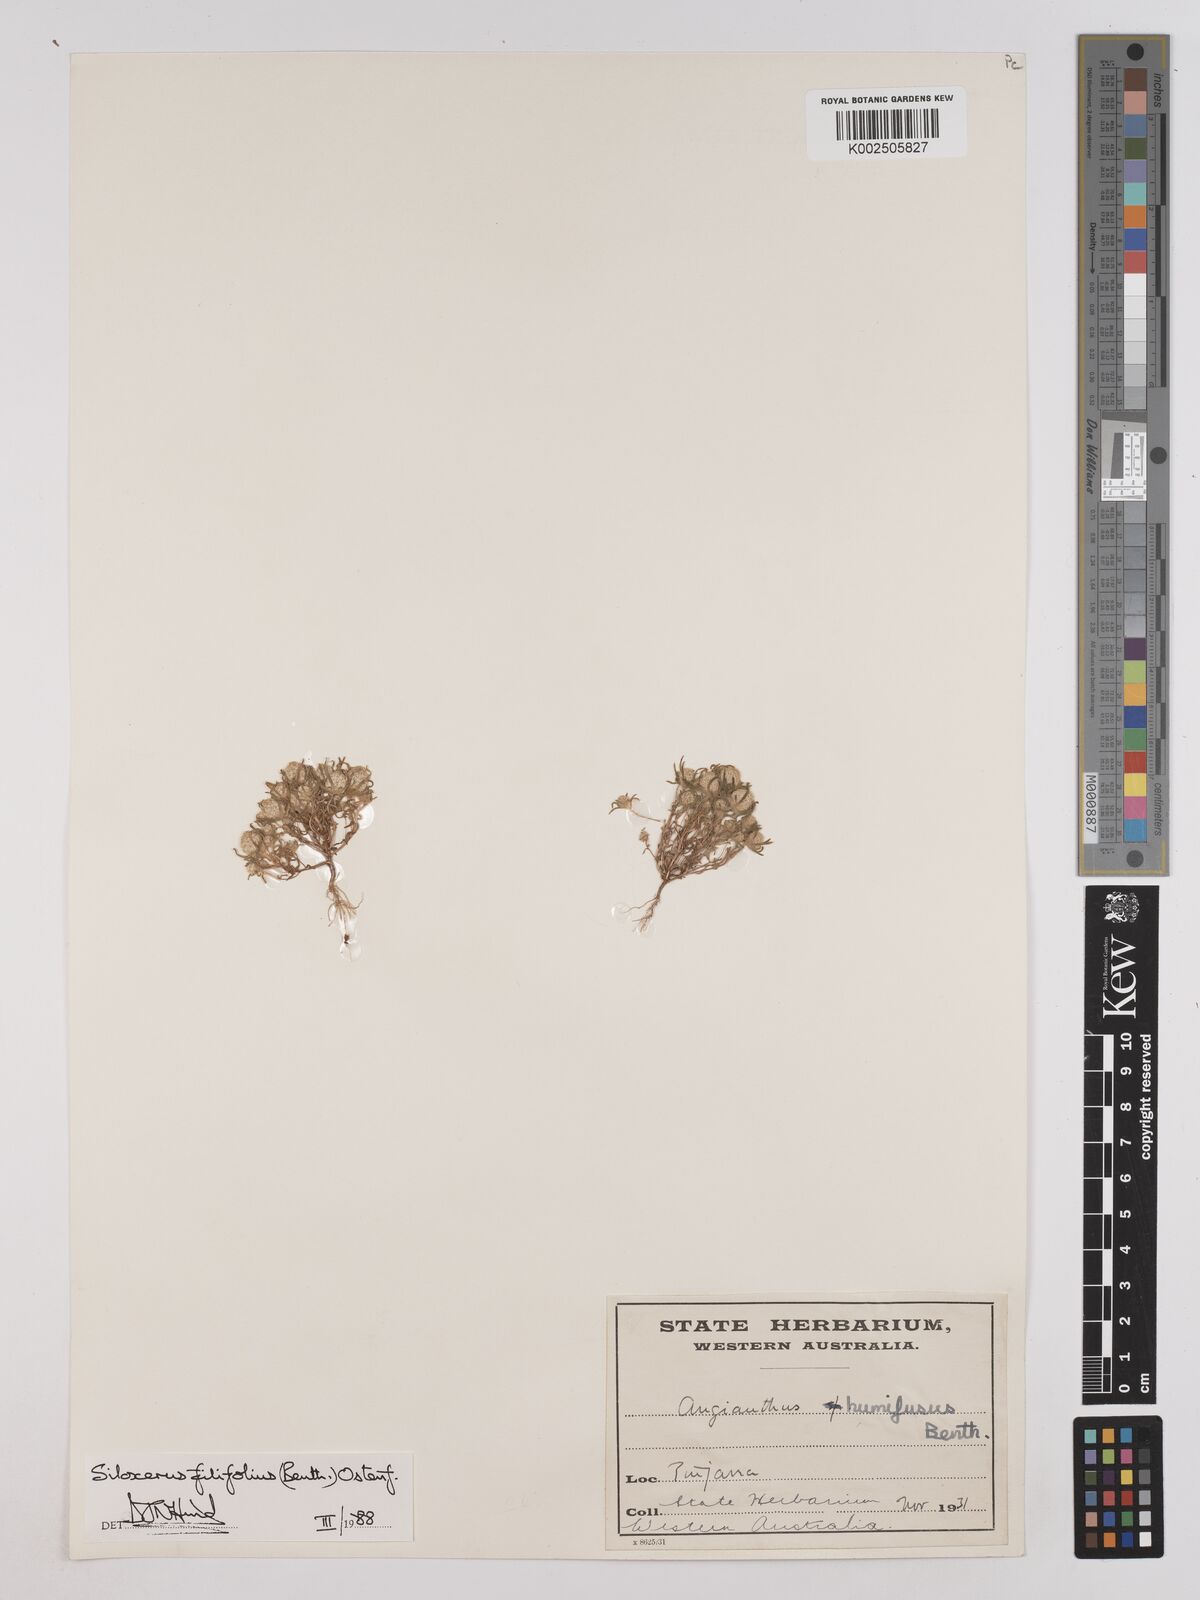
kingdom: Plantae
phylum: Tracheophyta
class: Magnoliopsida
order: Asterales
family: Asteraceae
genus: Siloxerus
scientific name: Siloxerus filifolius
